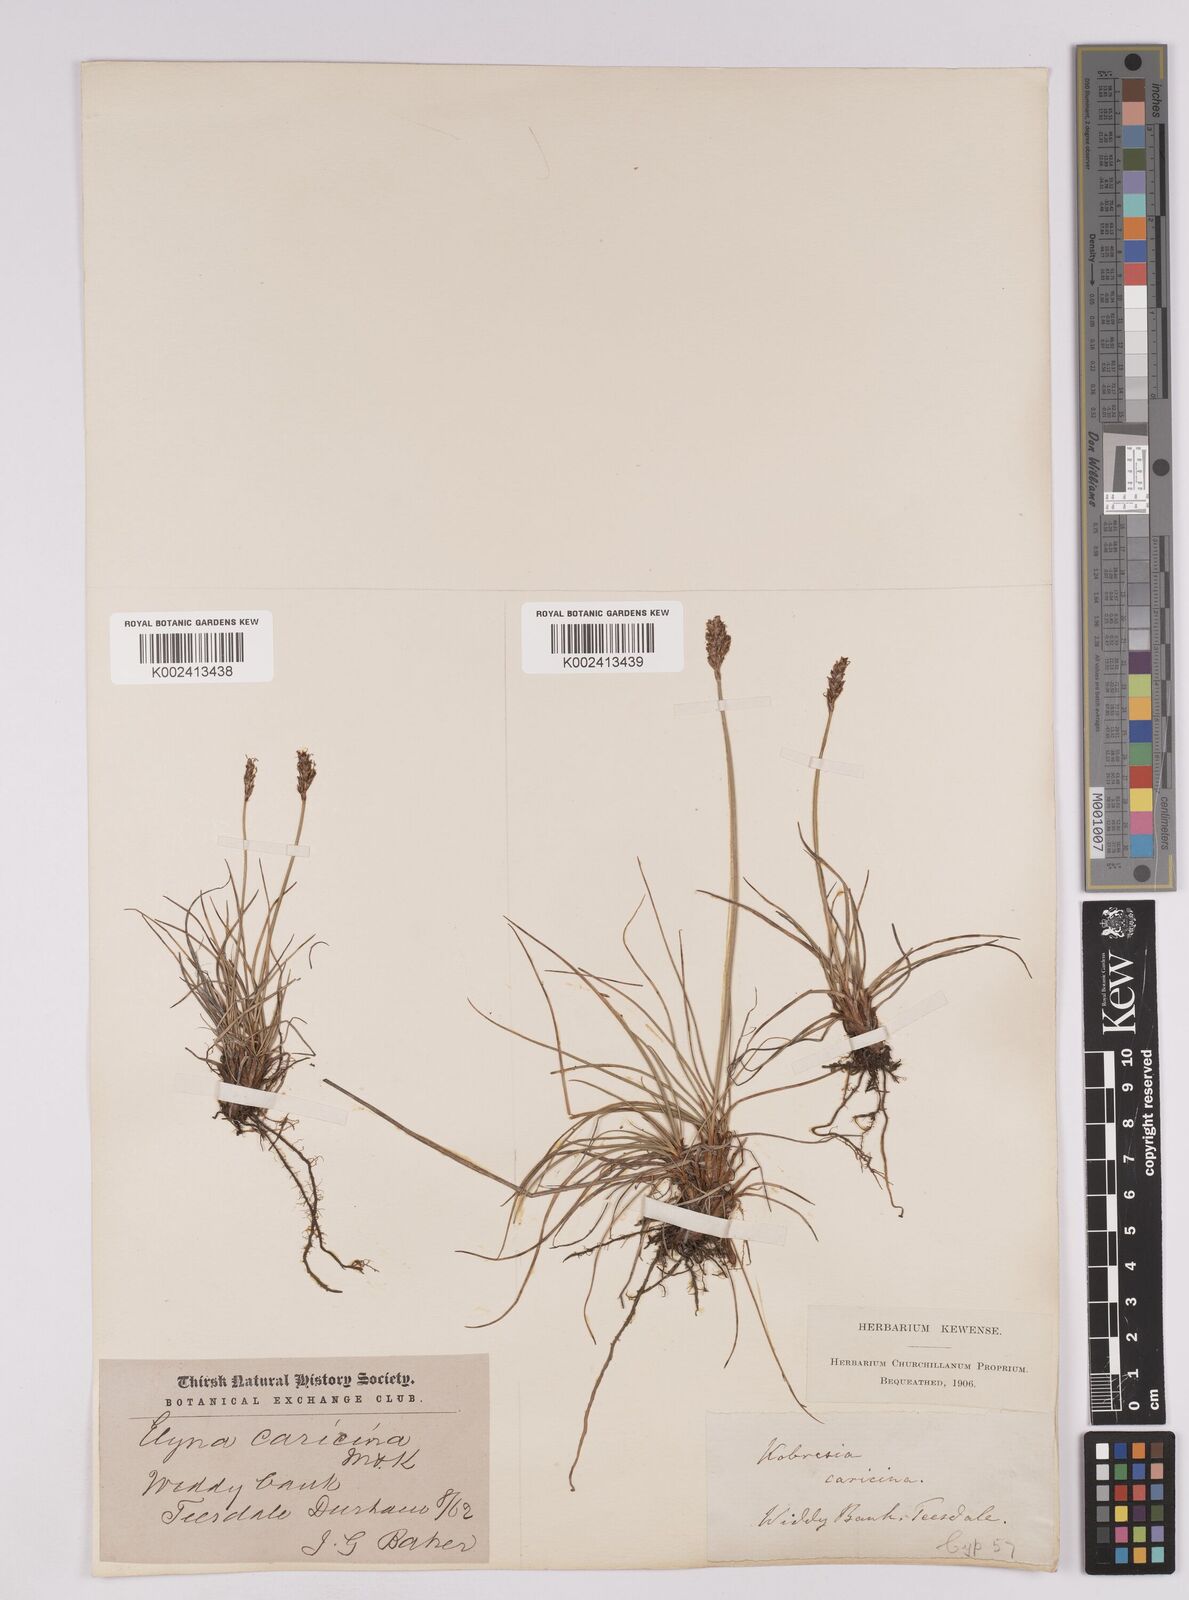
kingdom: Plantae
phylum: Tracheophyta
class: Liliopsida
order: Poales
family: Cyperaceae
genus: Carex
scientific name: Carex simpliciuscula
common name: Simple bog sedge
